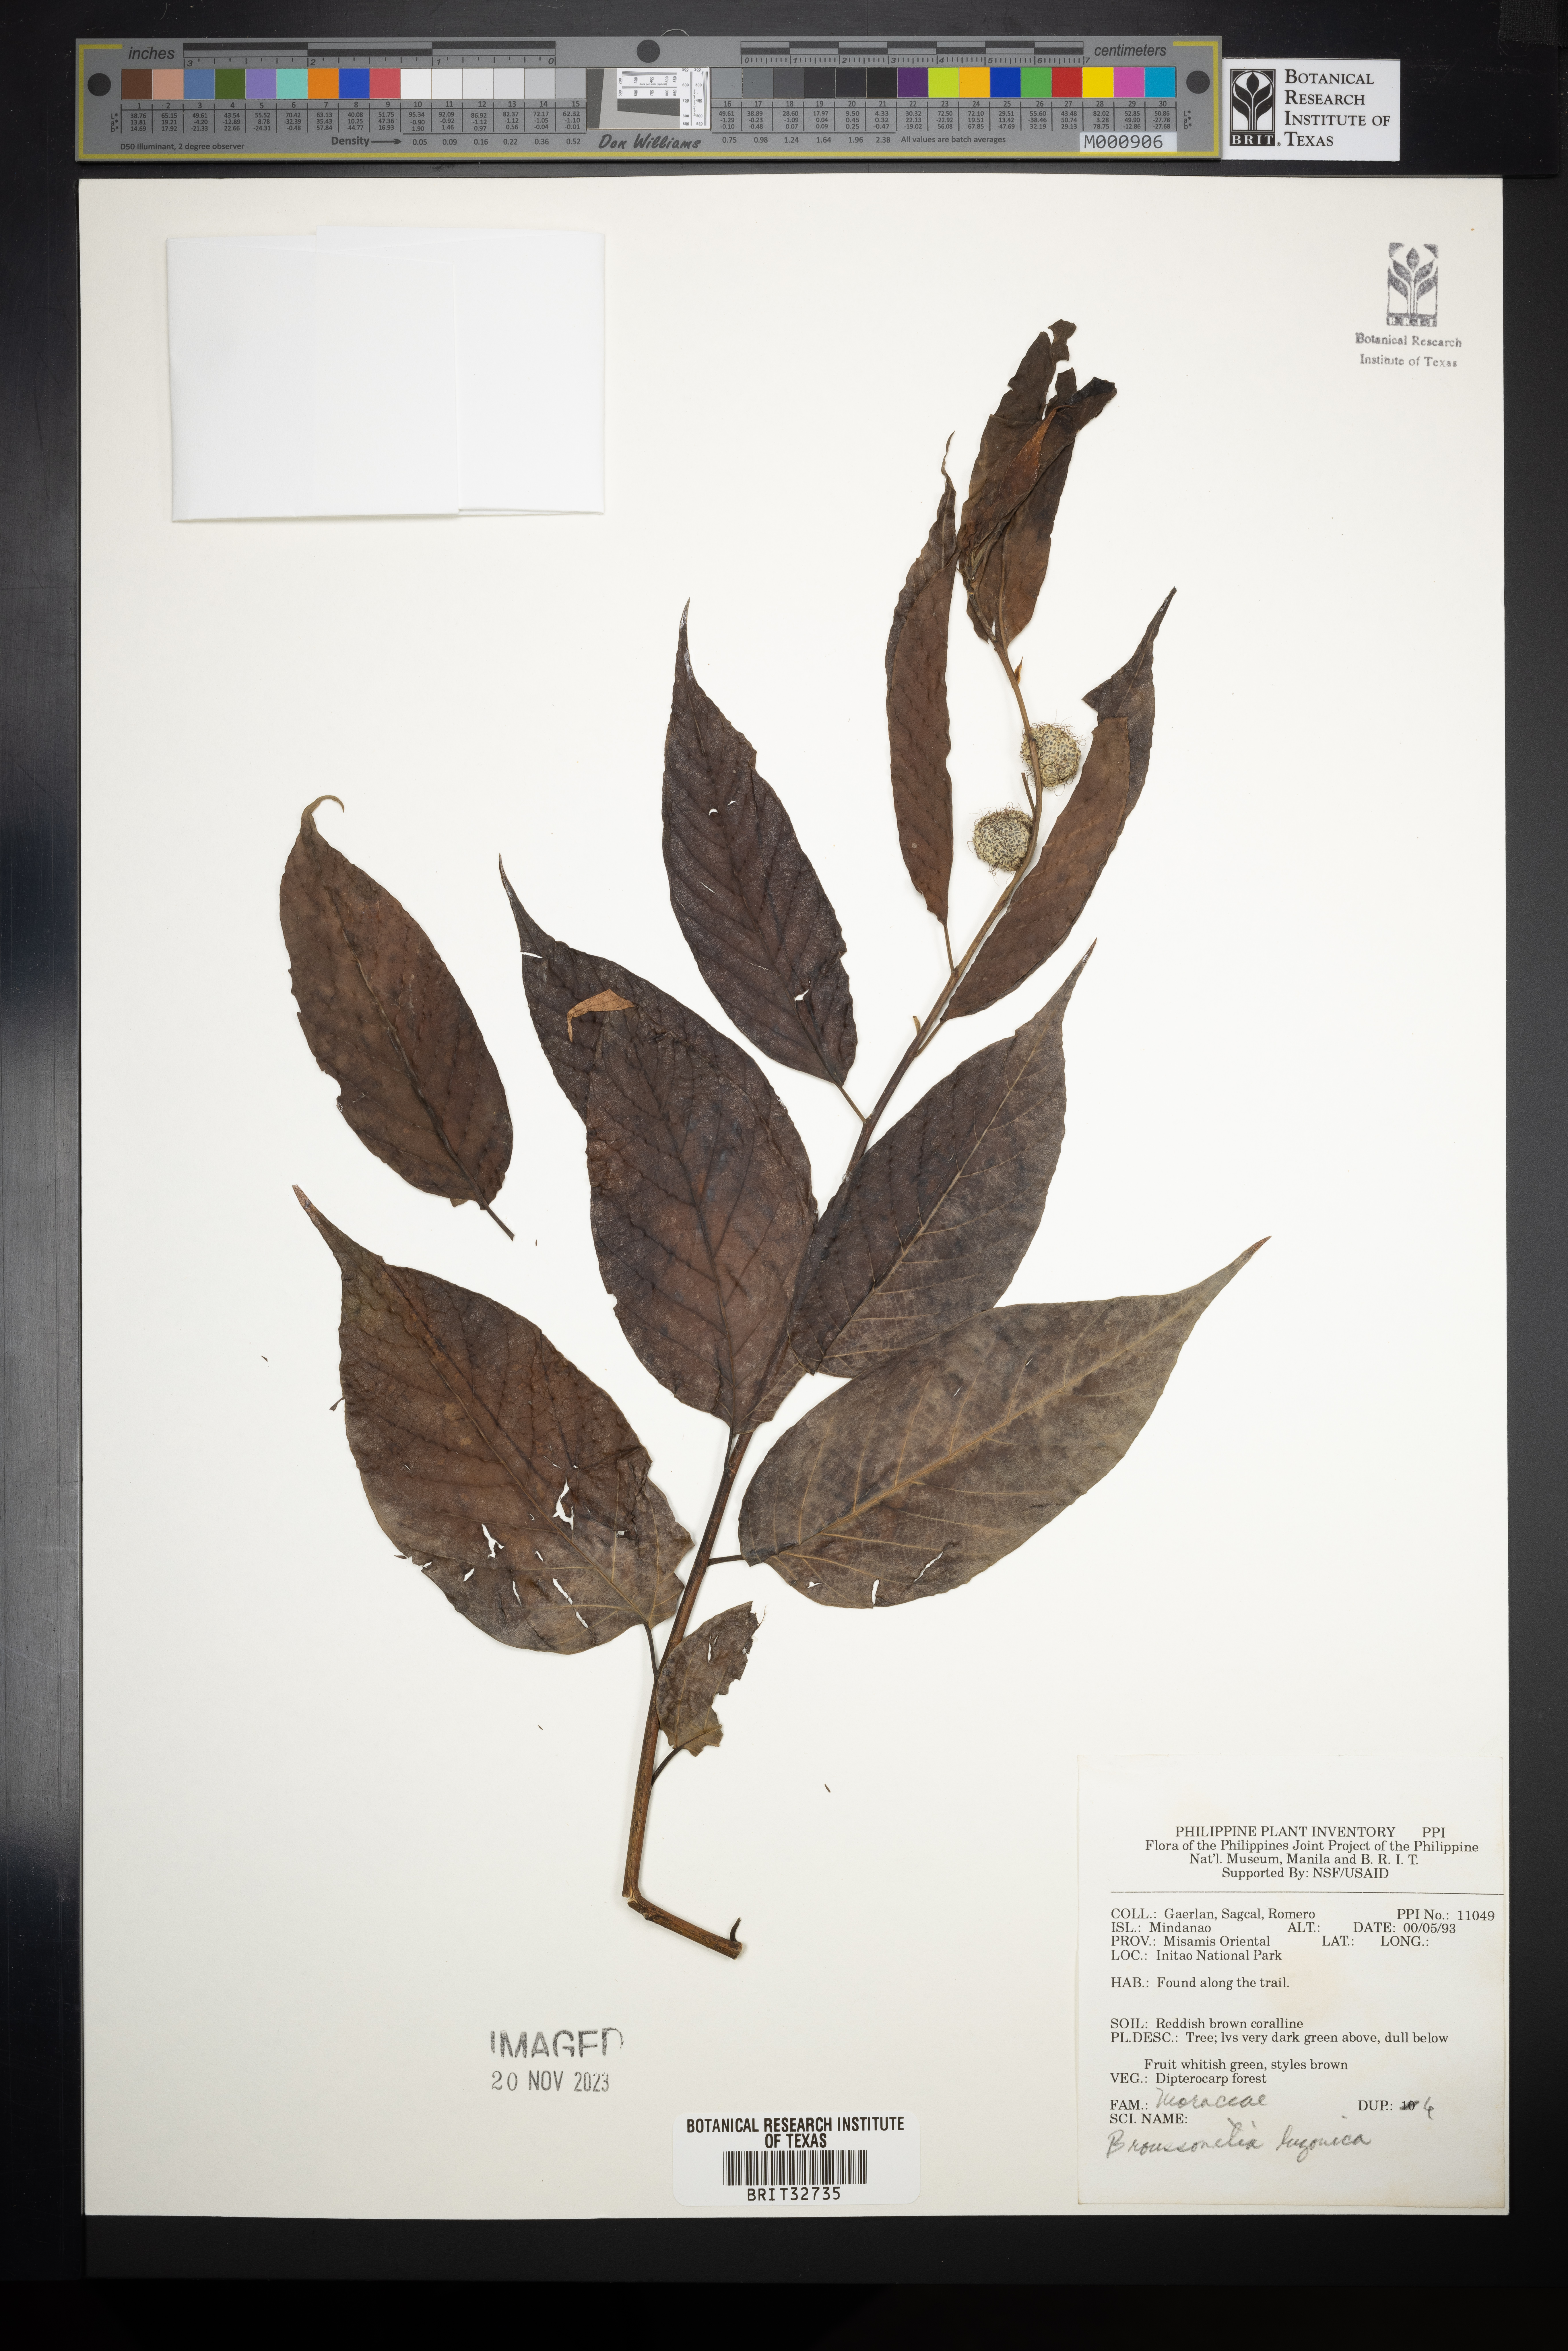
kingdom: Plantae
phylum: Tracheophyta
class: Magnoliopsida
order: Rosales
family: Moraceae
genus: Allaeanthus
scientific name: Allaeanthus luzonicus
